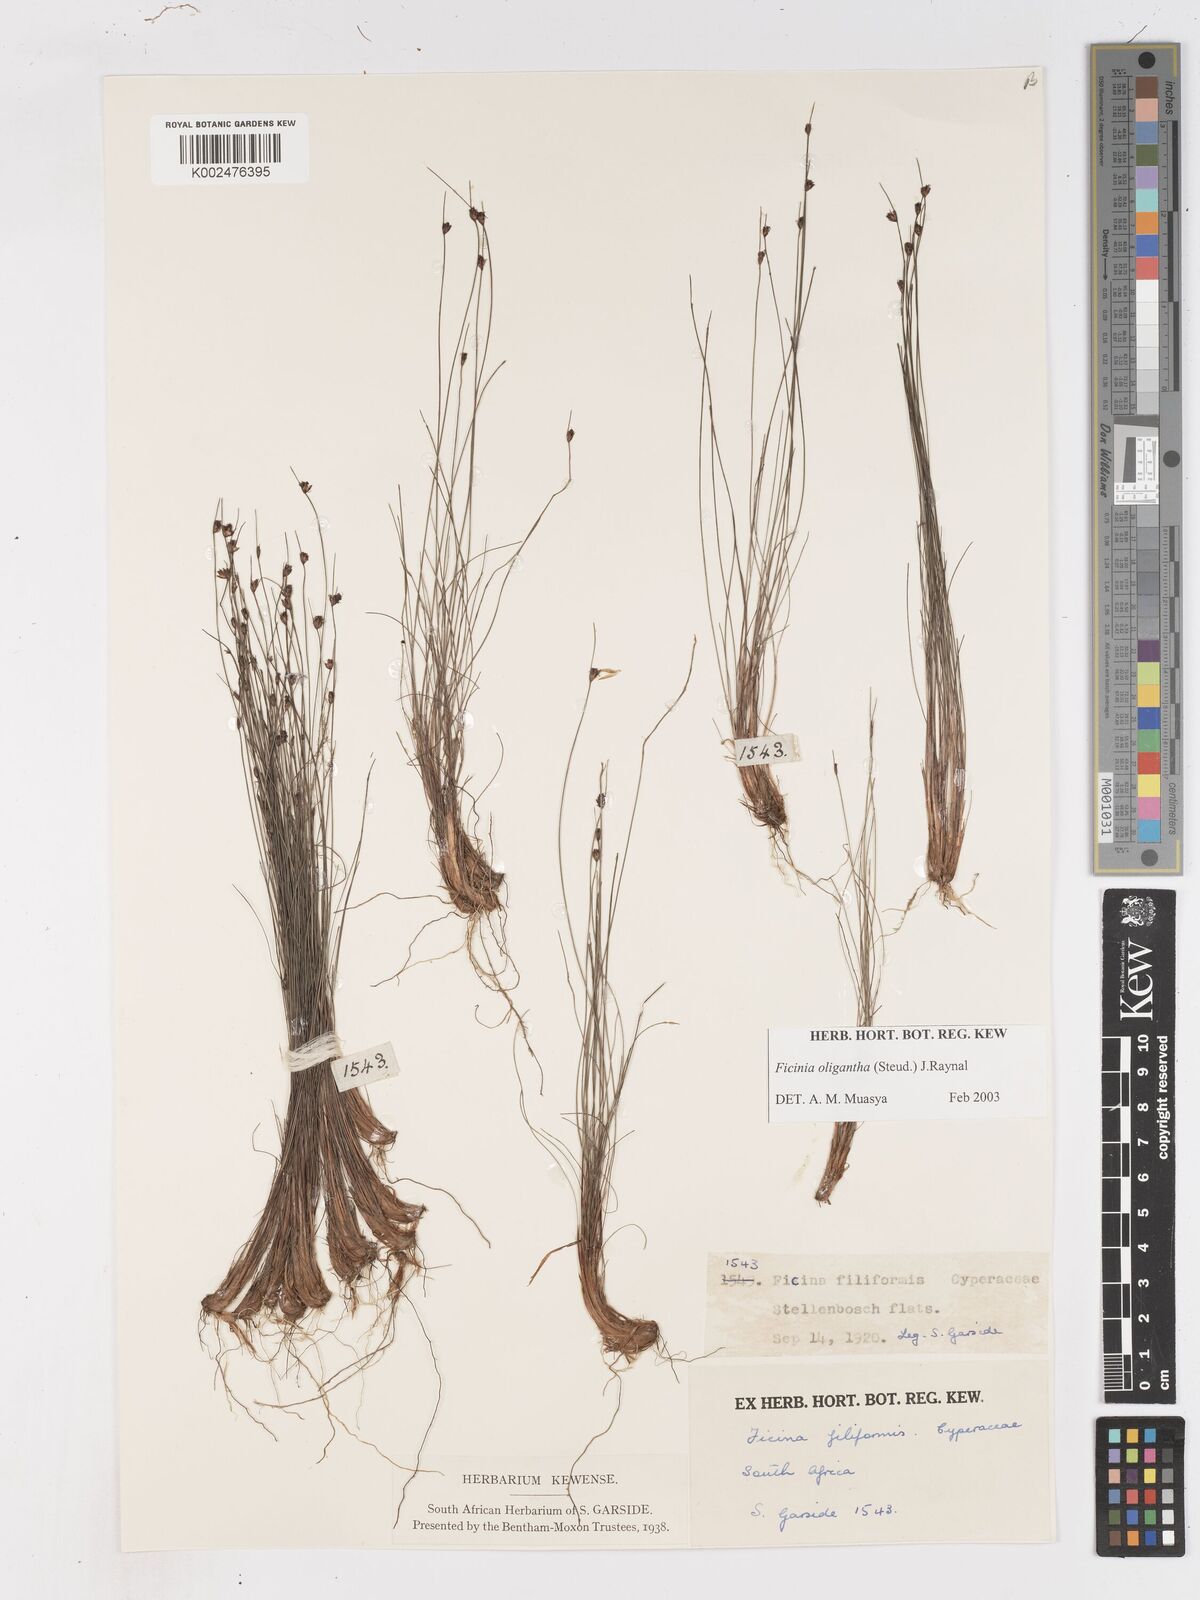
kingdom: Plantae
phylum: Tracheophyta
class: Liliopsida
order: Poales
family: Cyperaceae
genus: Ficinia
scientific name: Ficinia oligantha
